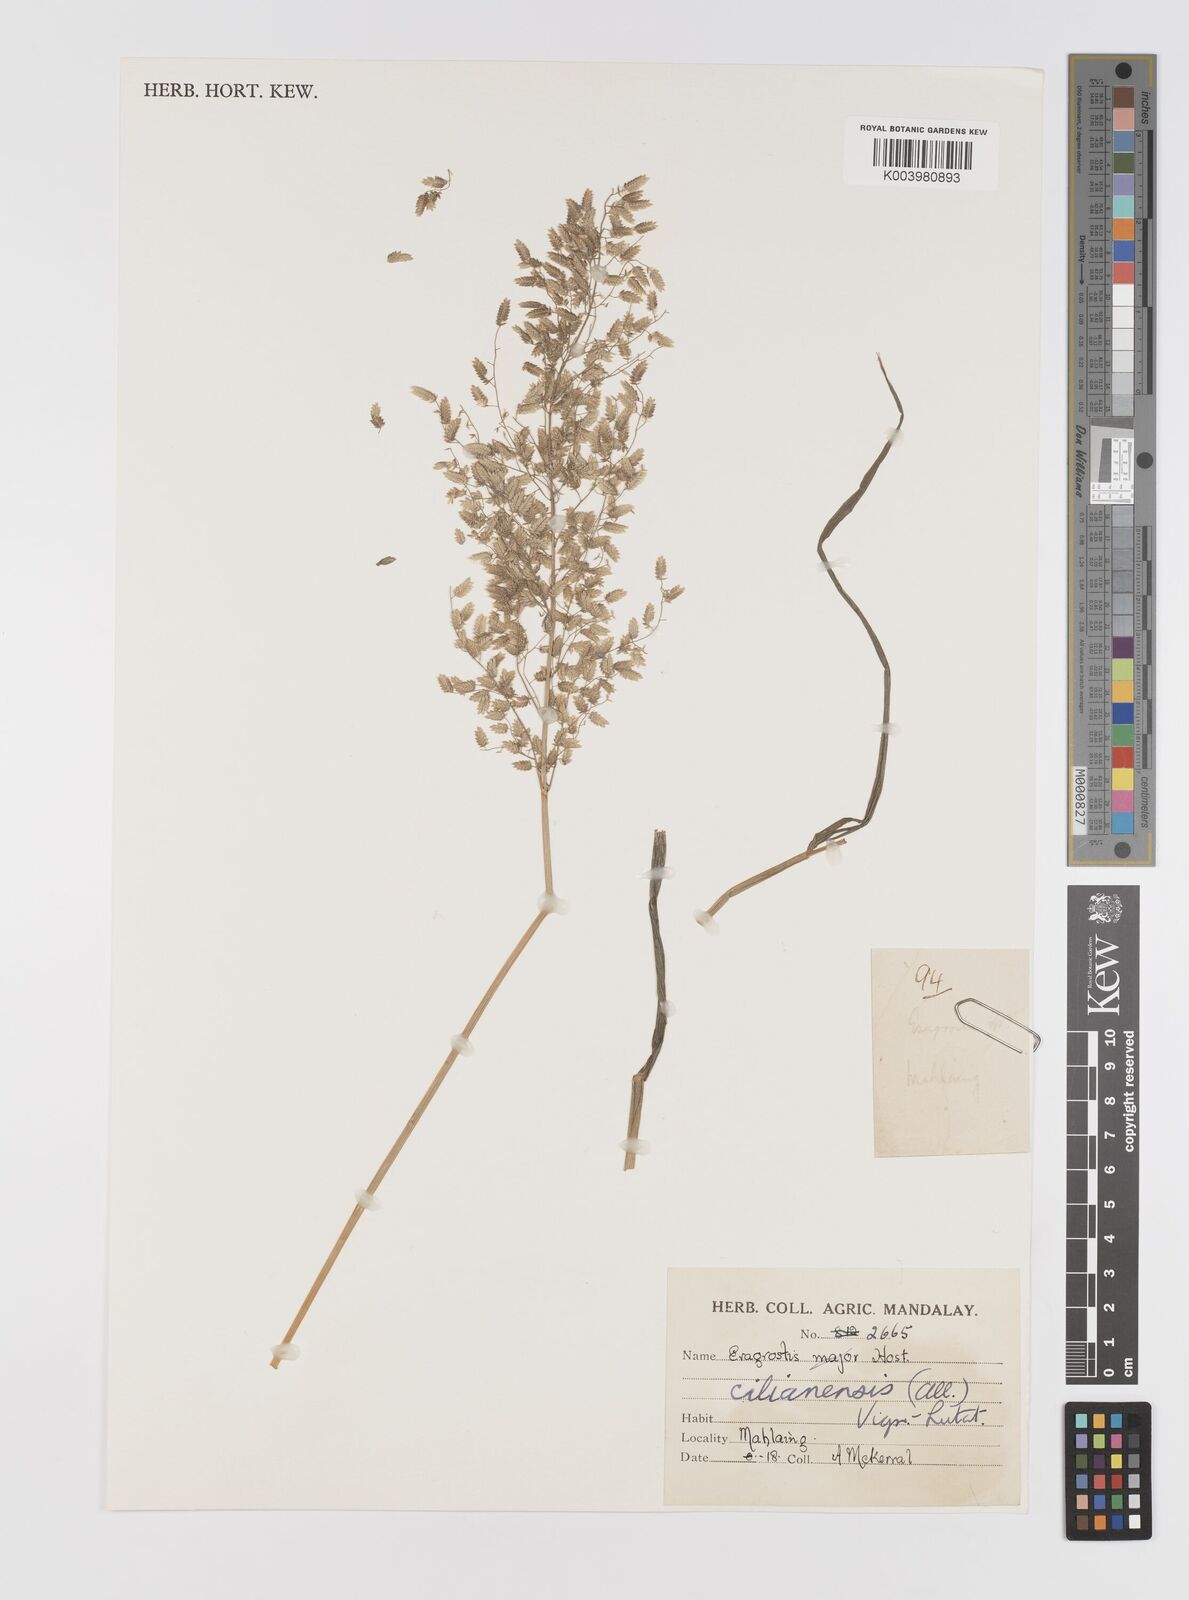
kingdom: Plantae
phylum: Tracheophyta
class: Liliopsida
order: Poales
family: Poaceae
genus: Eragrostis
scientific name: Eragrostis cilianensis
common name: Stinkgrass
